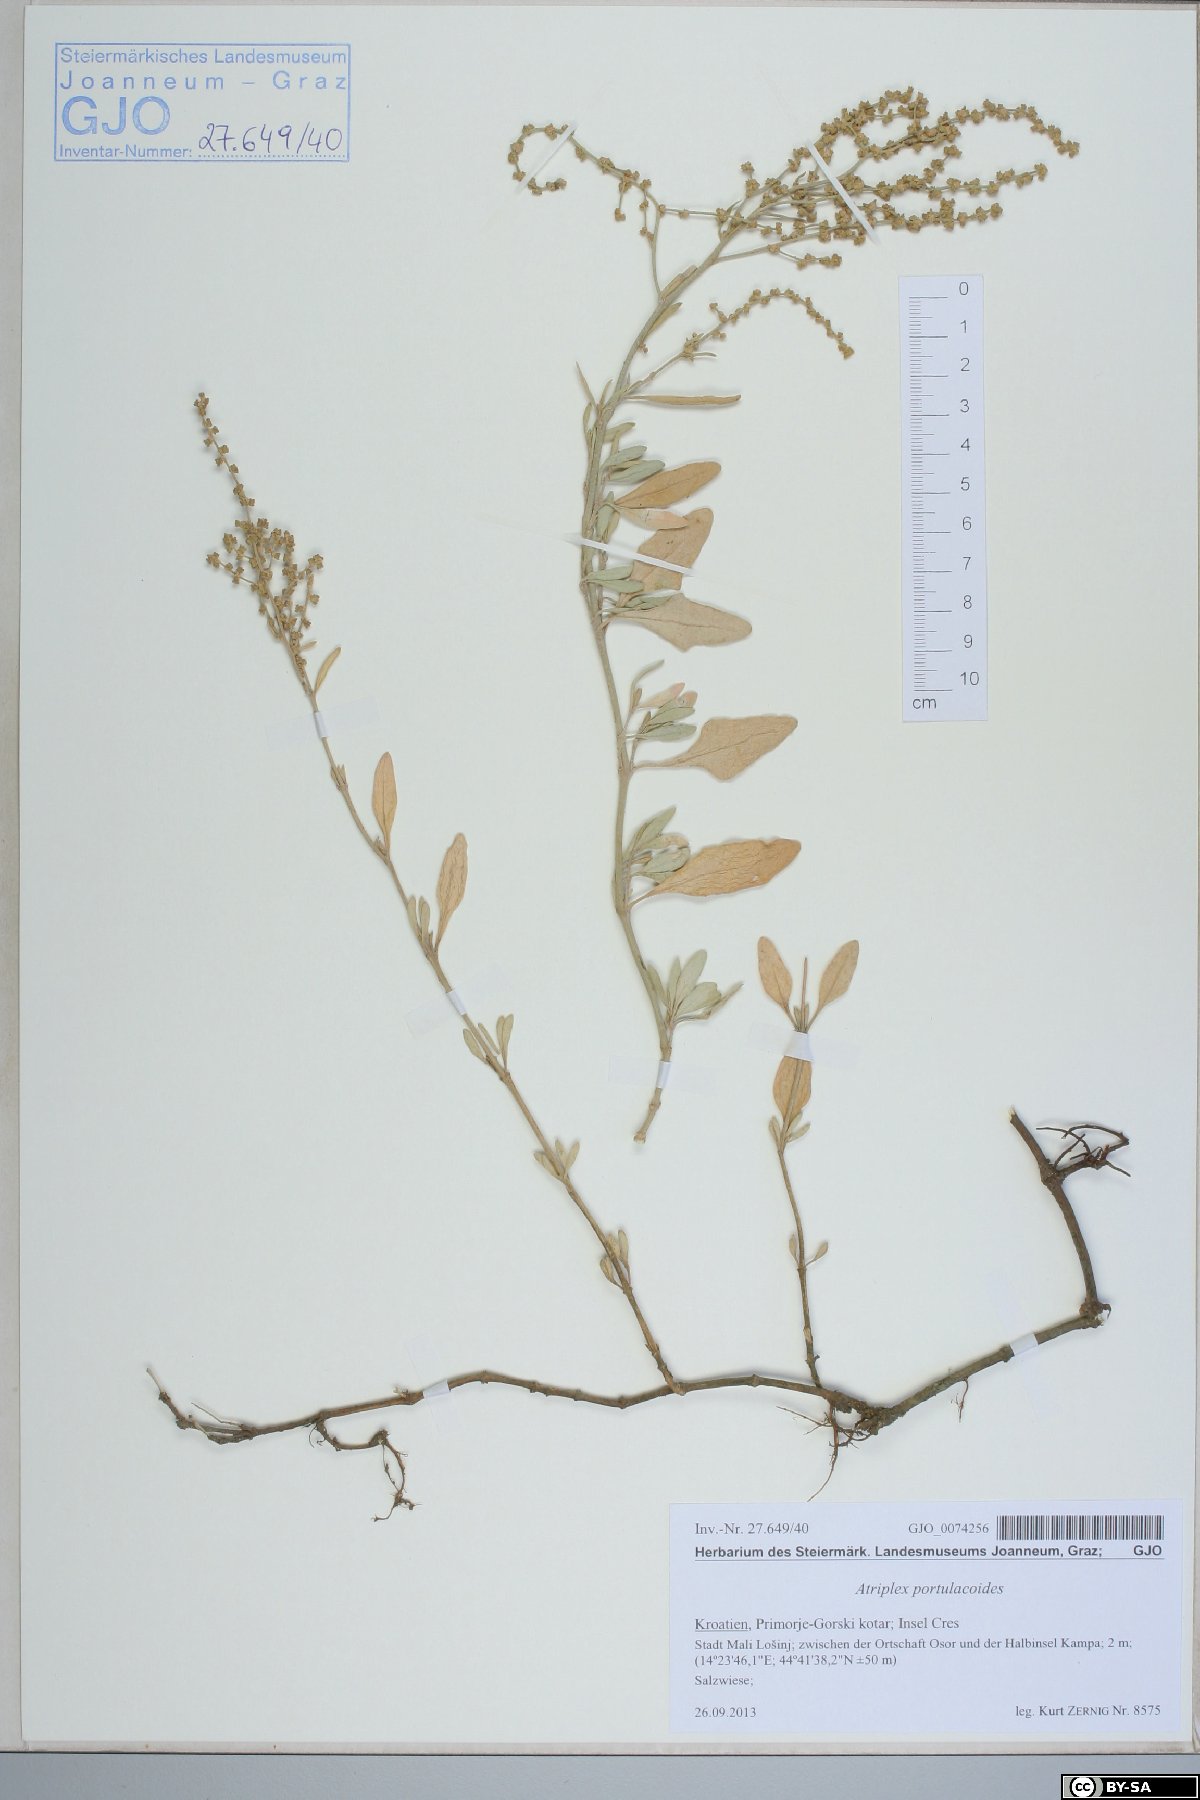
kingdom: Plantae
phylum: Tracheophyta
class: Magnoliopsida
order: Caryophyllales
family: Amaranthaceae
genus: Halimione
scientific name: Halimione portulacoides
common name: Sea-purslane
